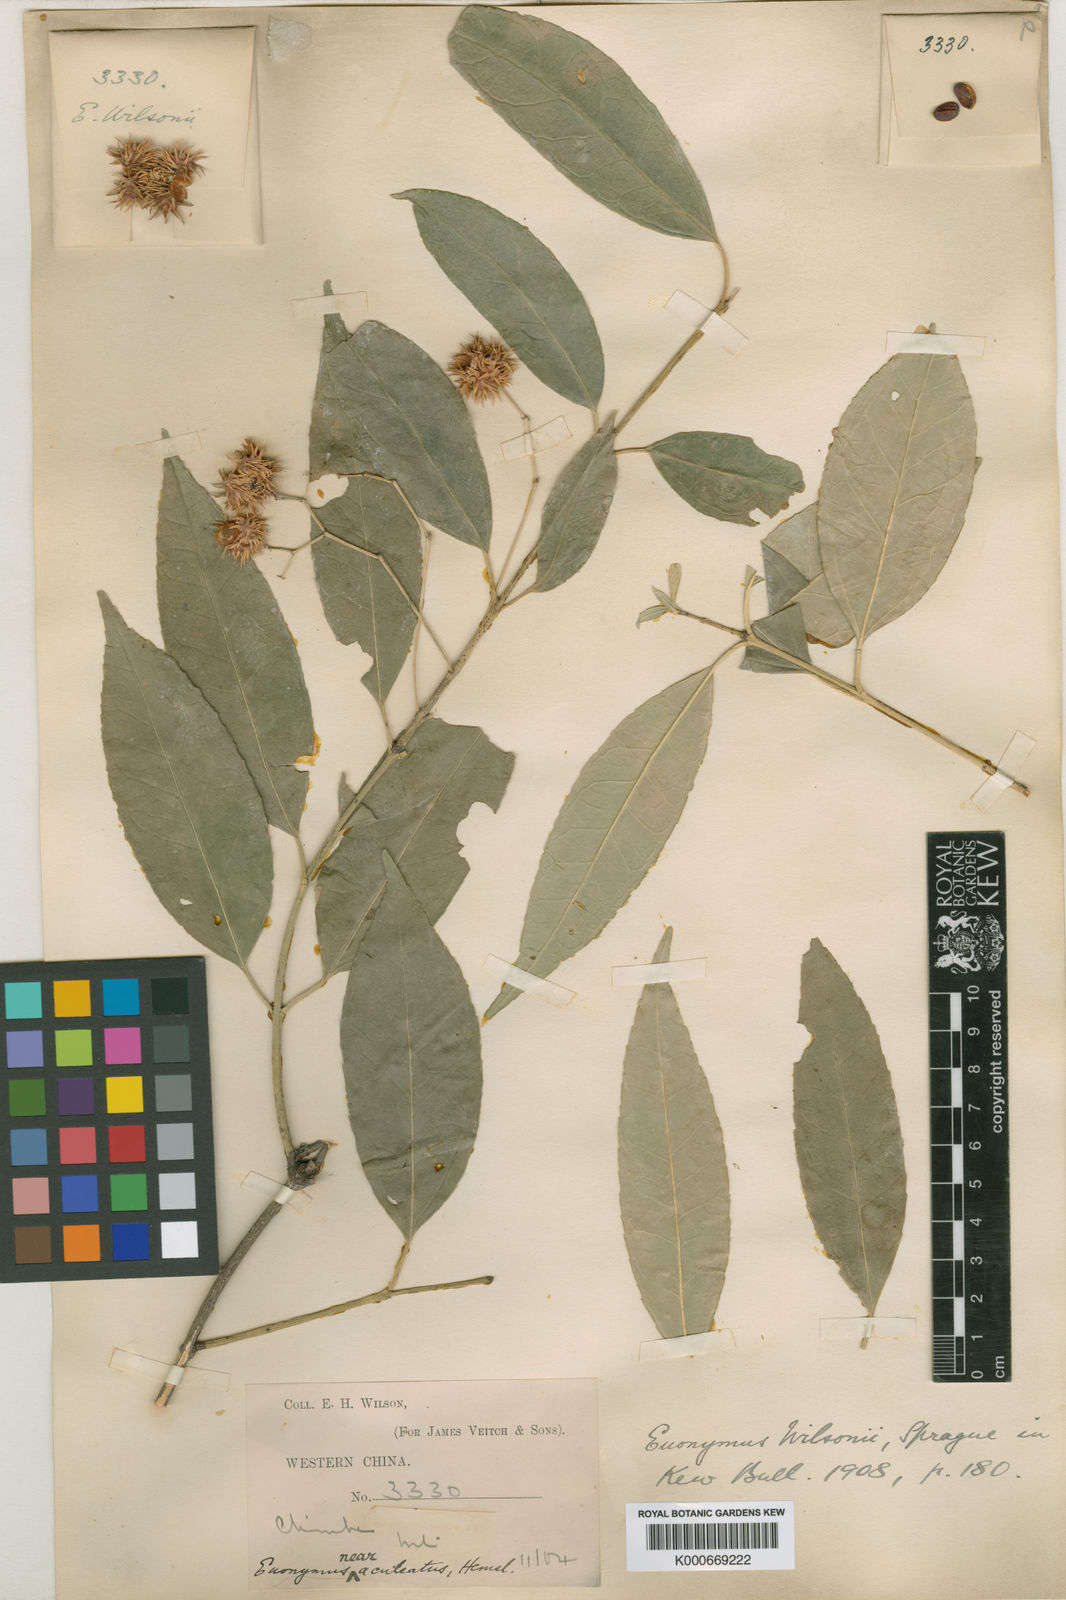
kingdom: Plantae
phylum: Tracheophyta
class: Magnoliopsida
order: Celastrales
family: Celastraceae
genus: Euonymus
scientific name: Euonymus wilsonii
